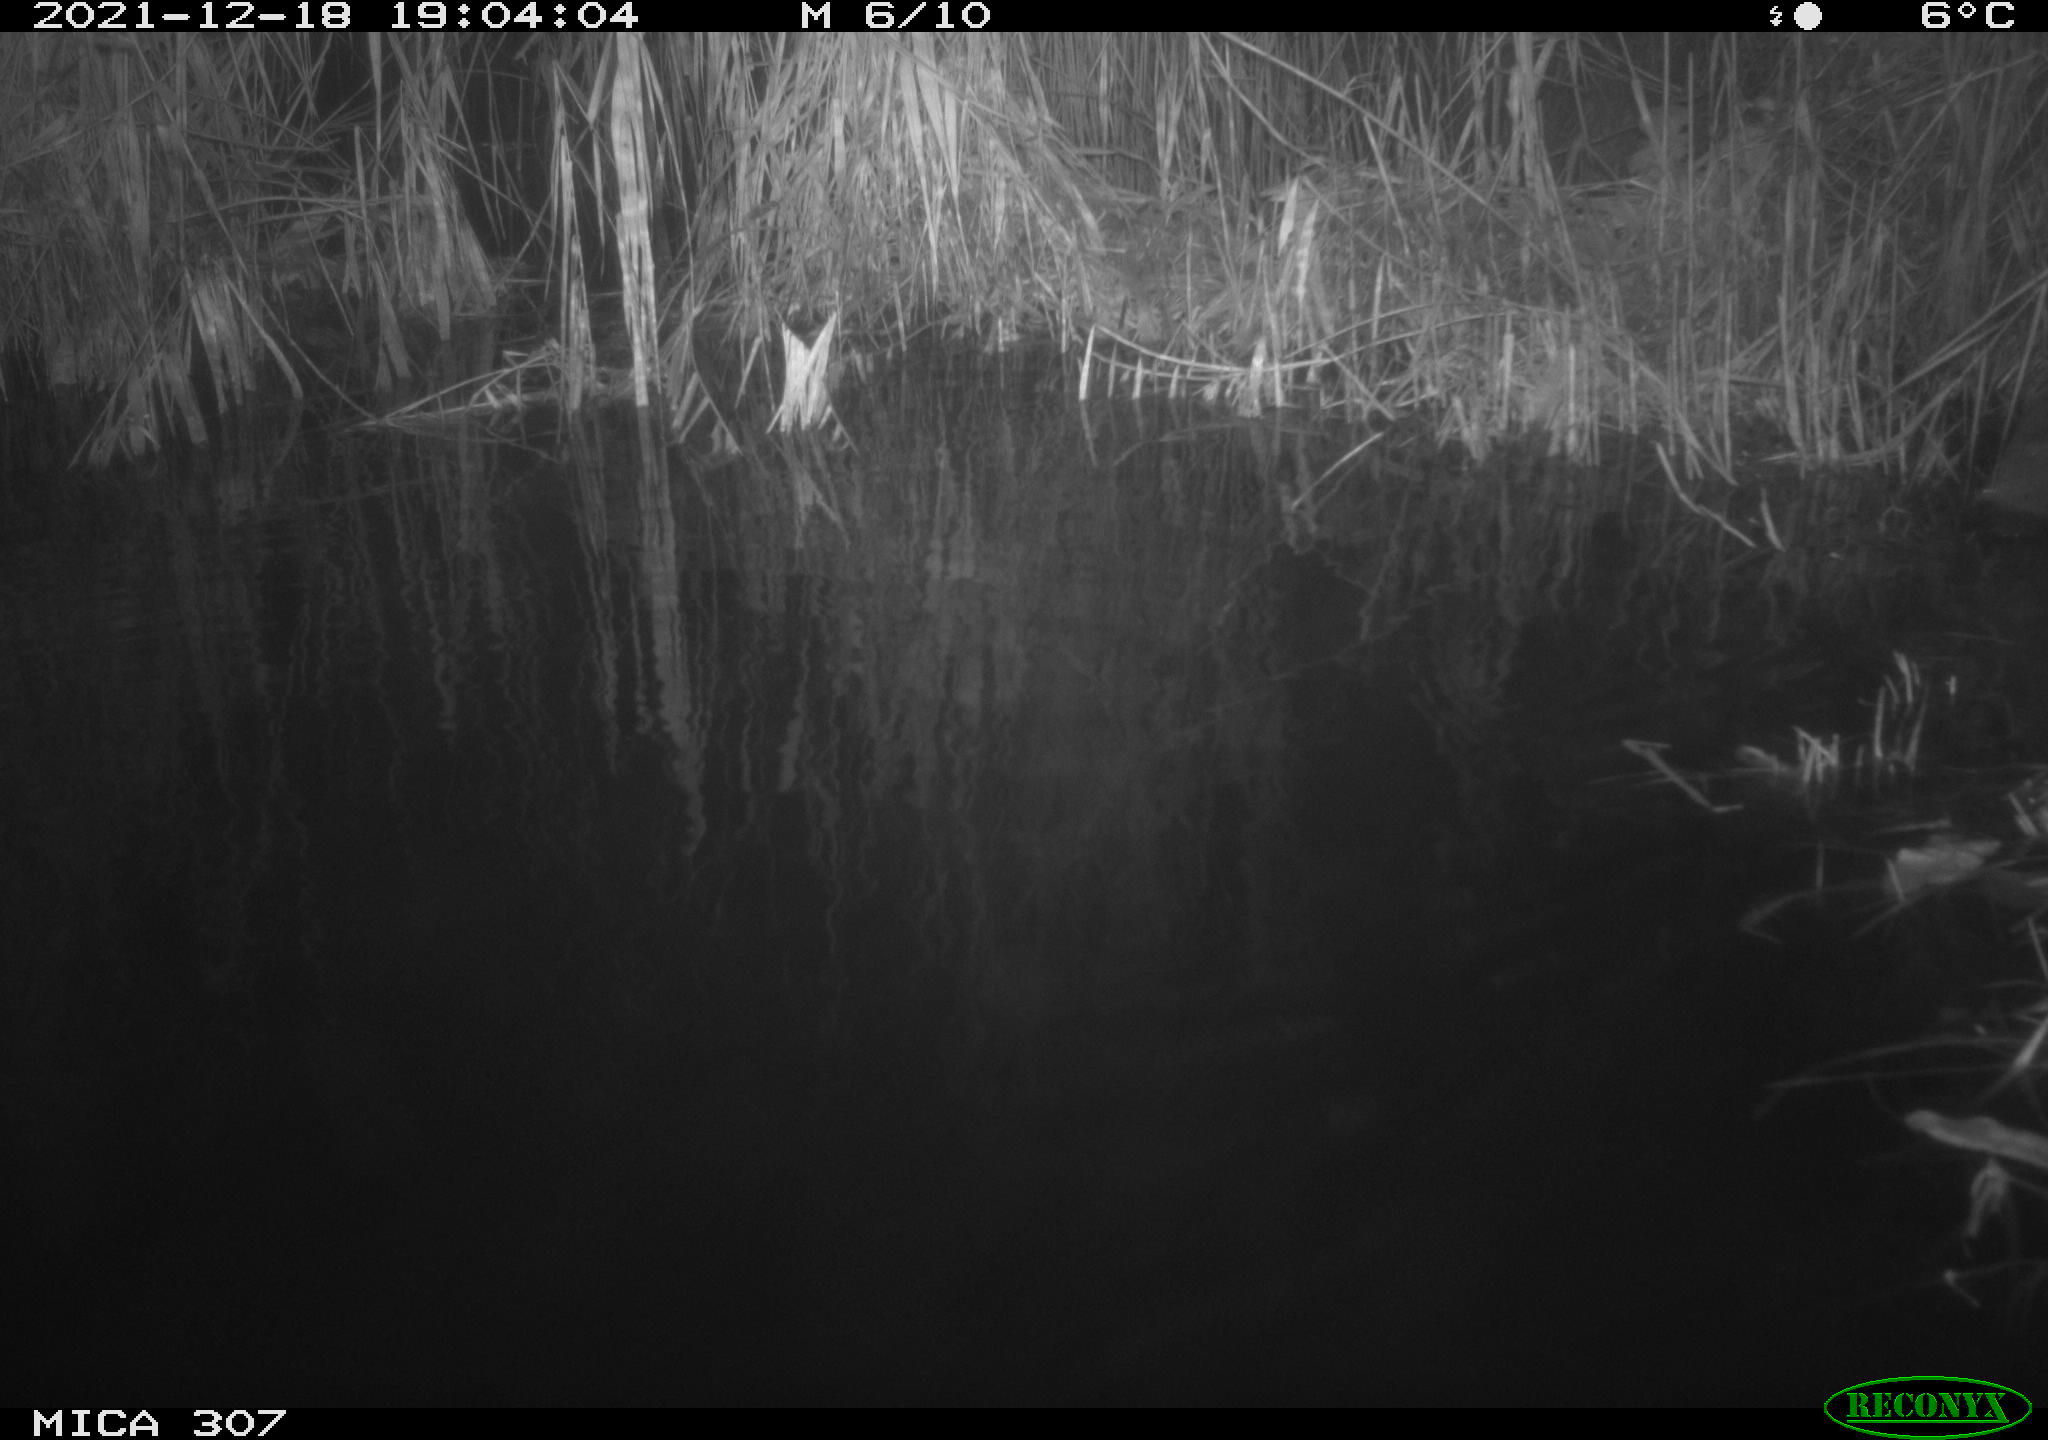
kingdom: Animalia
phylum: Chordata
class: Mammalia
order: Rodentia
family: Muridae
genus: Rattus
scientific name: Rattus norvegicus
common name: Brown rat
